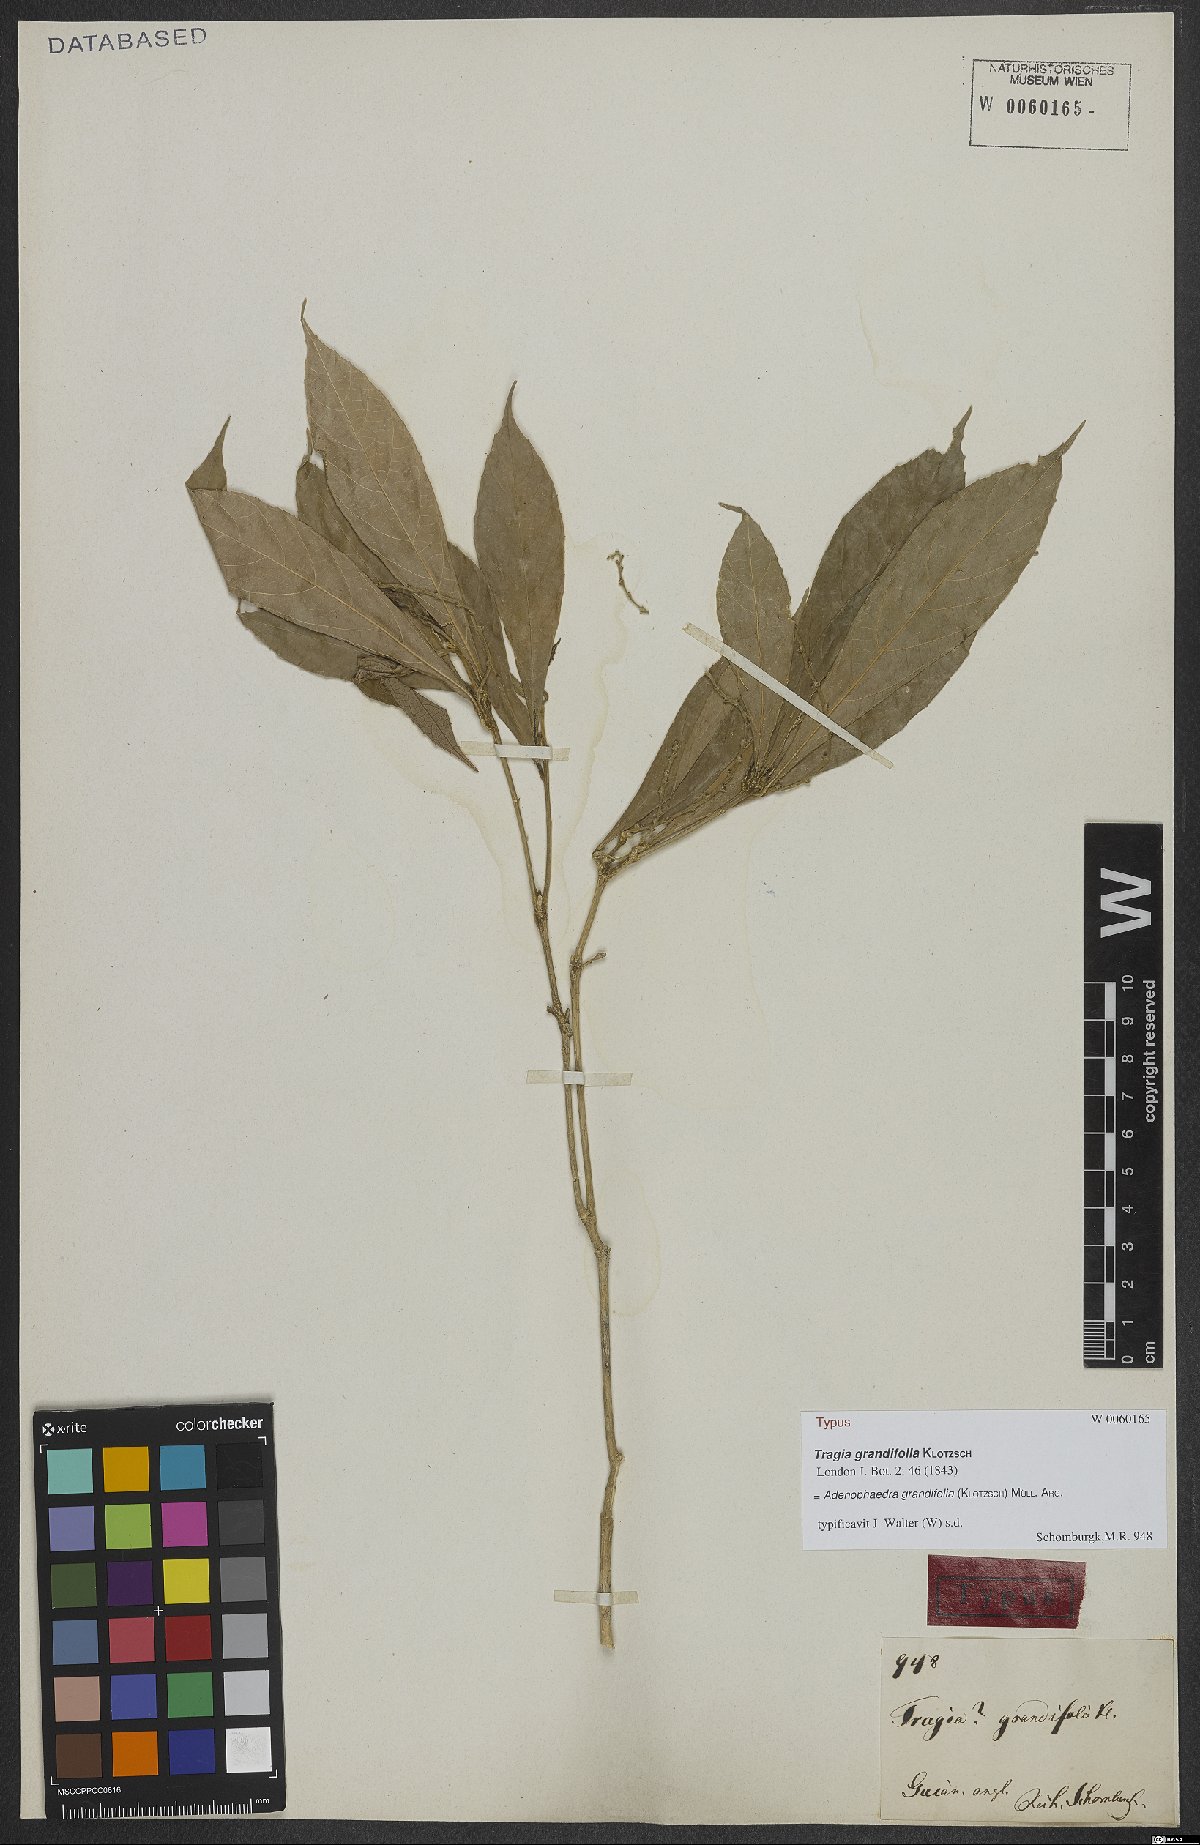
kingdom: Plantae
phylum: Tracheophyta
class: Magnoliopsida
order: Malpighiales
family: Euphorbiaceae
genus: Adenophaedra
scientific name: Adenophaedra grandifolia
